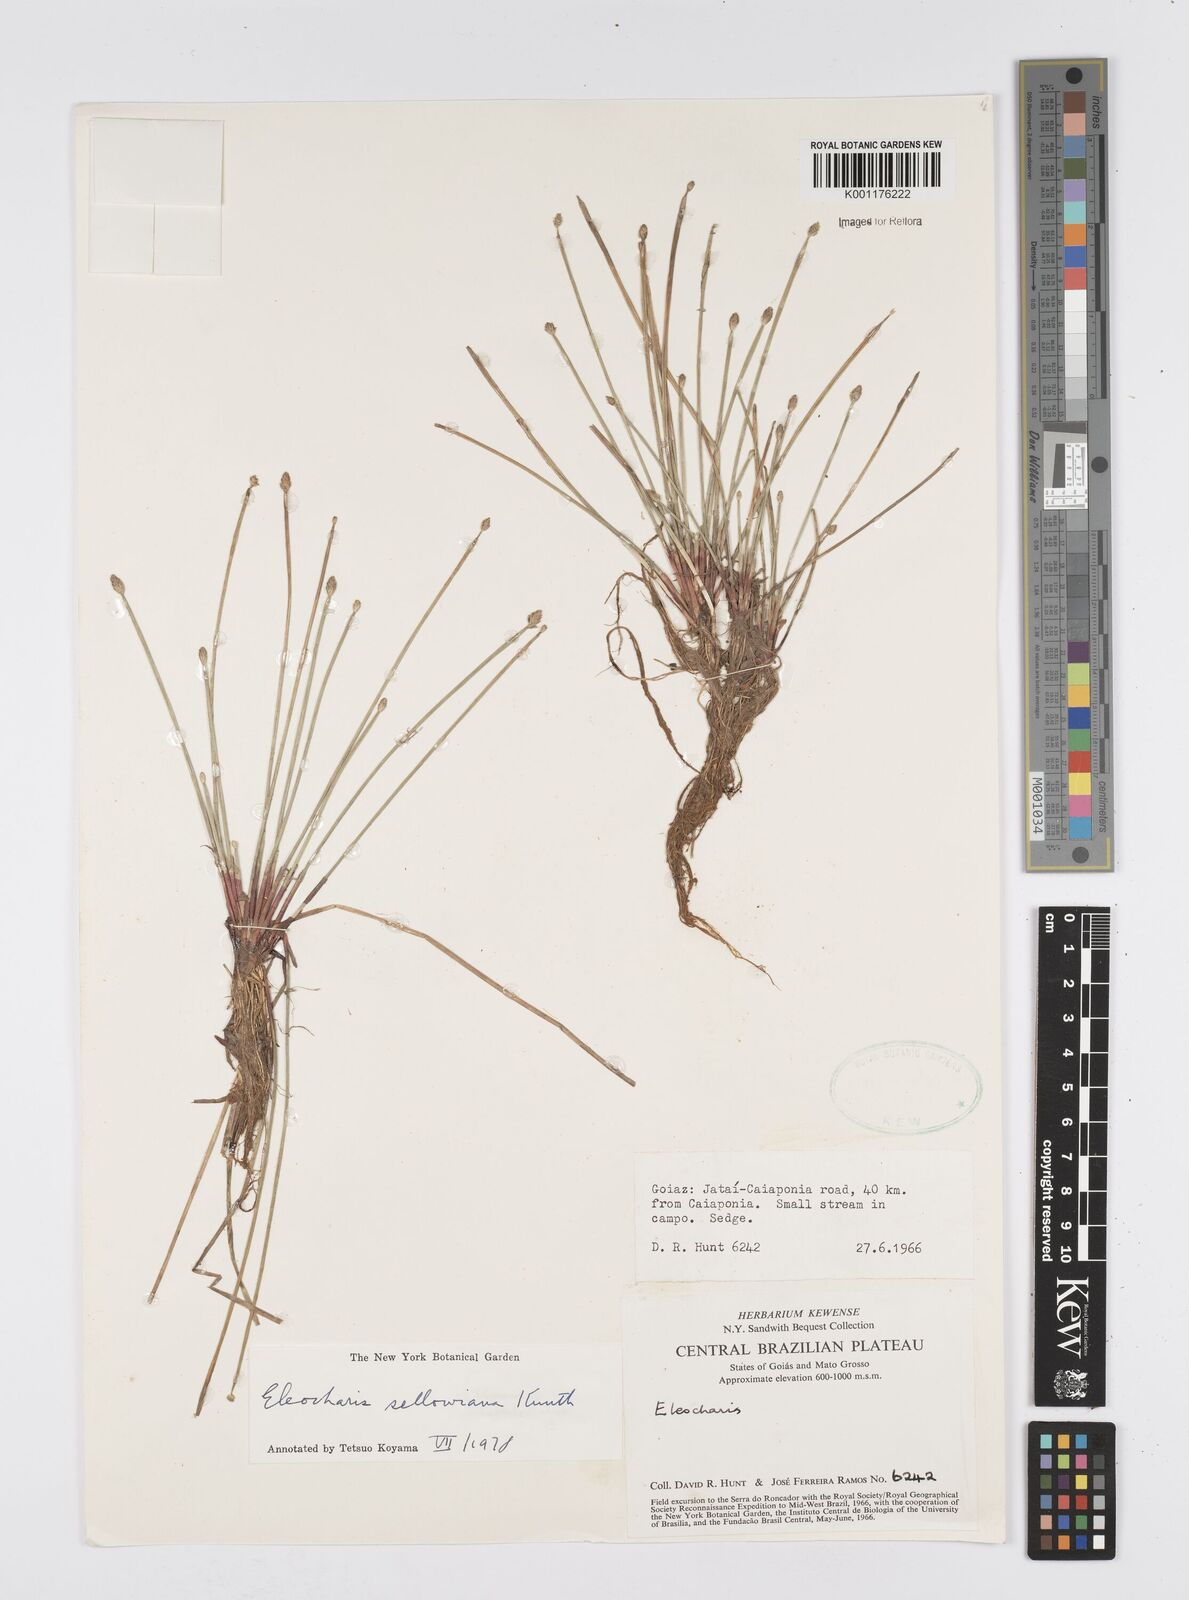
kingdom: Plantae
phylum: Tracheophyta
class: Liliopsida
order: Poales
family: Cyperaceae
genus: Eleocharis
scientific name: Eleocharis sellowiana
